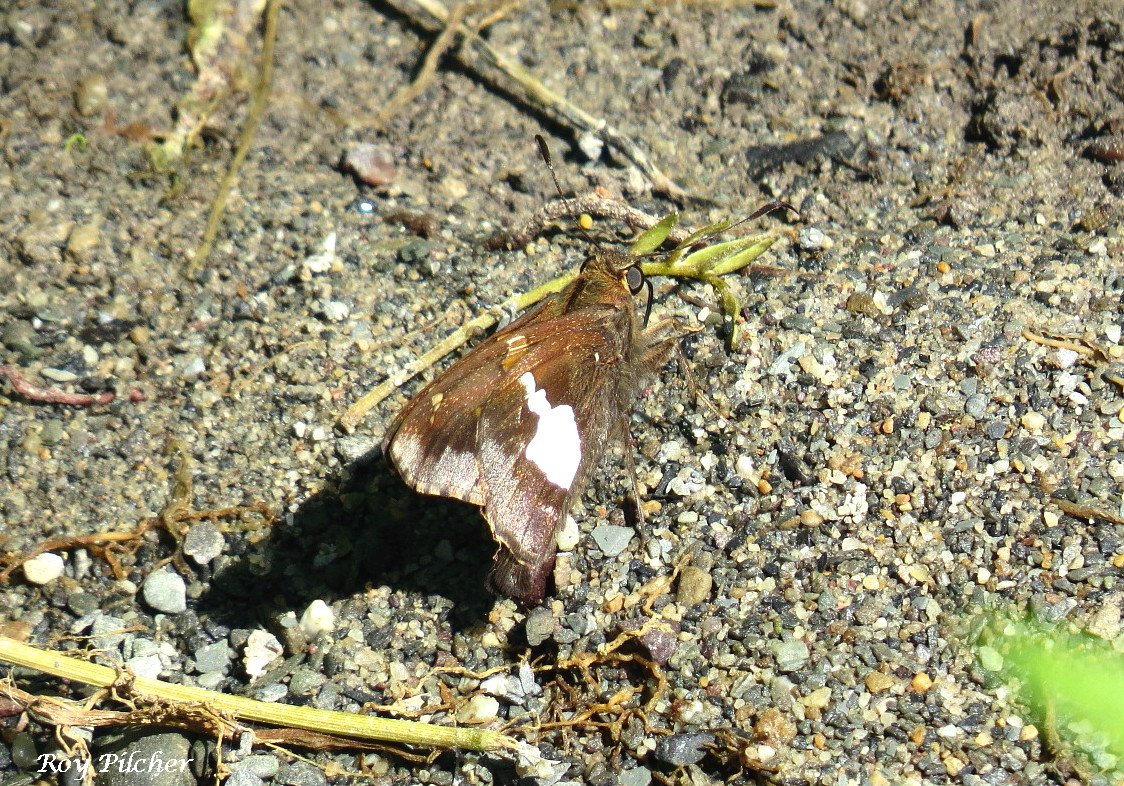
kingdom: Animalia
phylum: Arthropoda
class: Insecta
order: Lepidoptera
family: Hesperiidae
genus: Epargyreus
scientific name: Epargyreus clarus
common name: Silver-spotted Skipper
